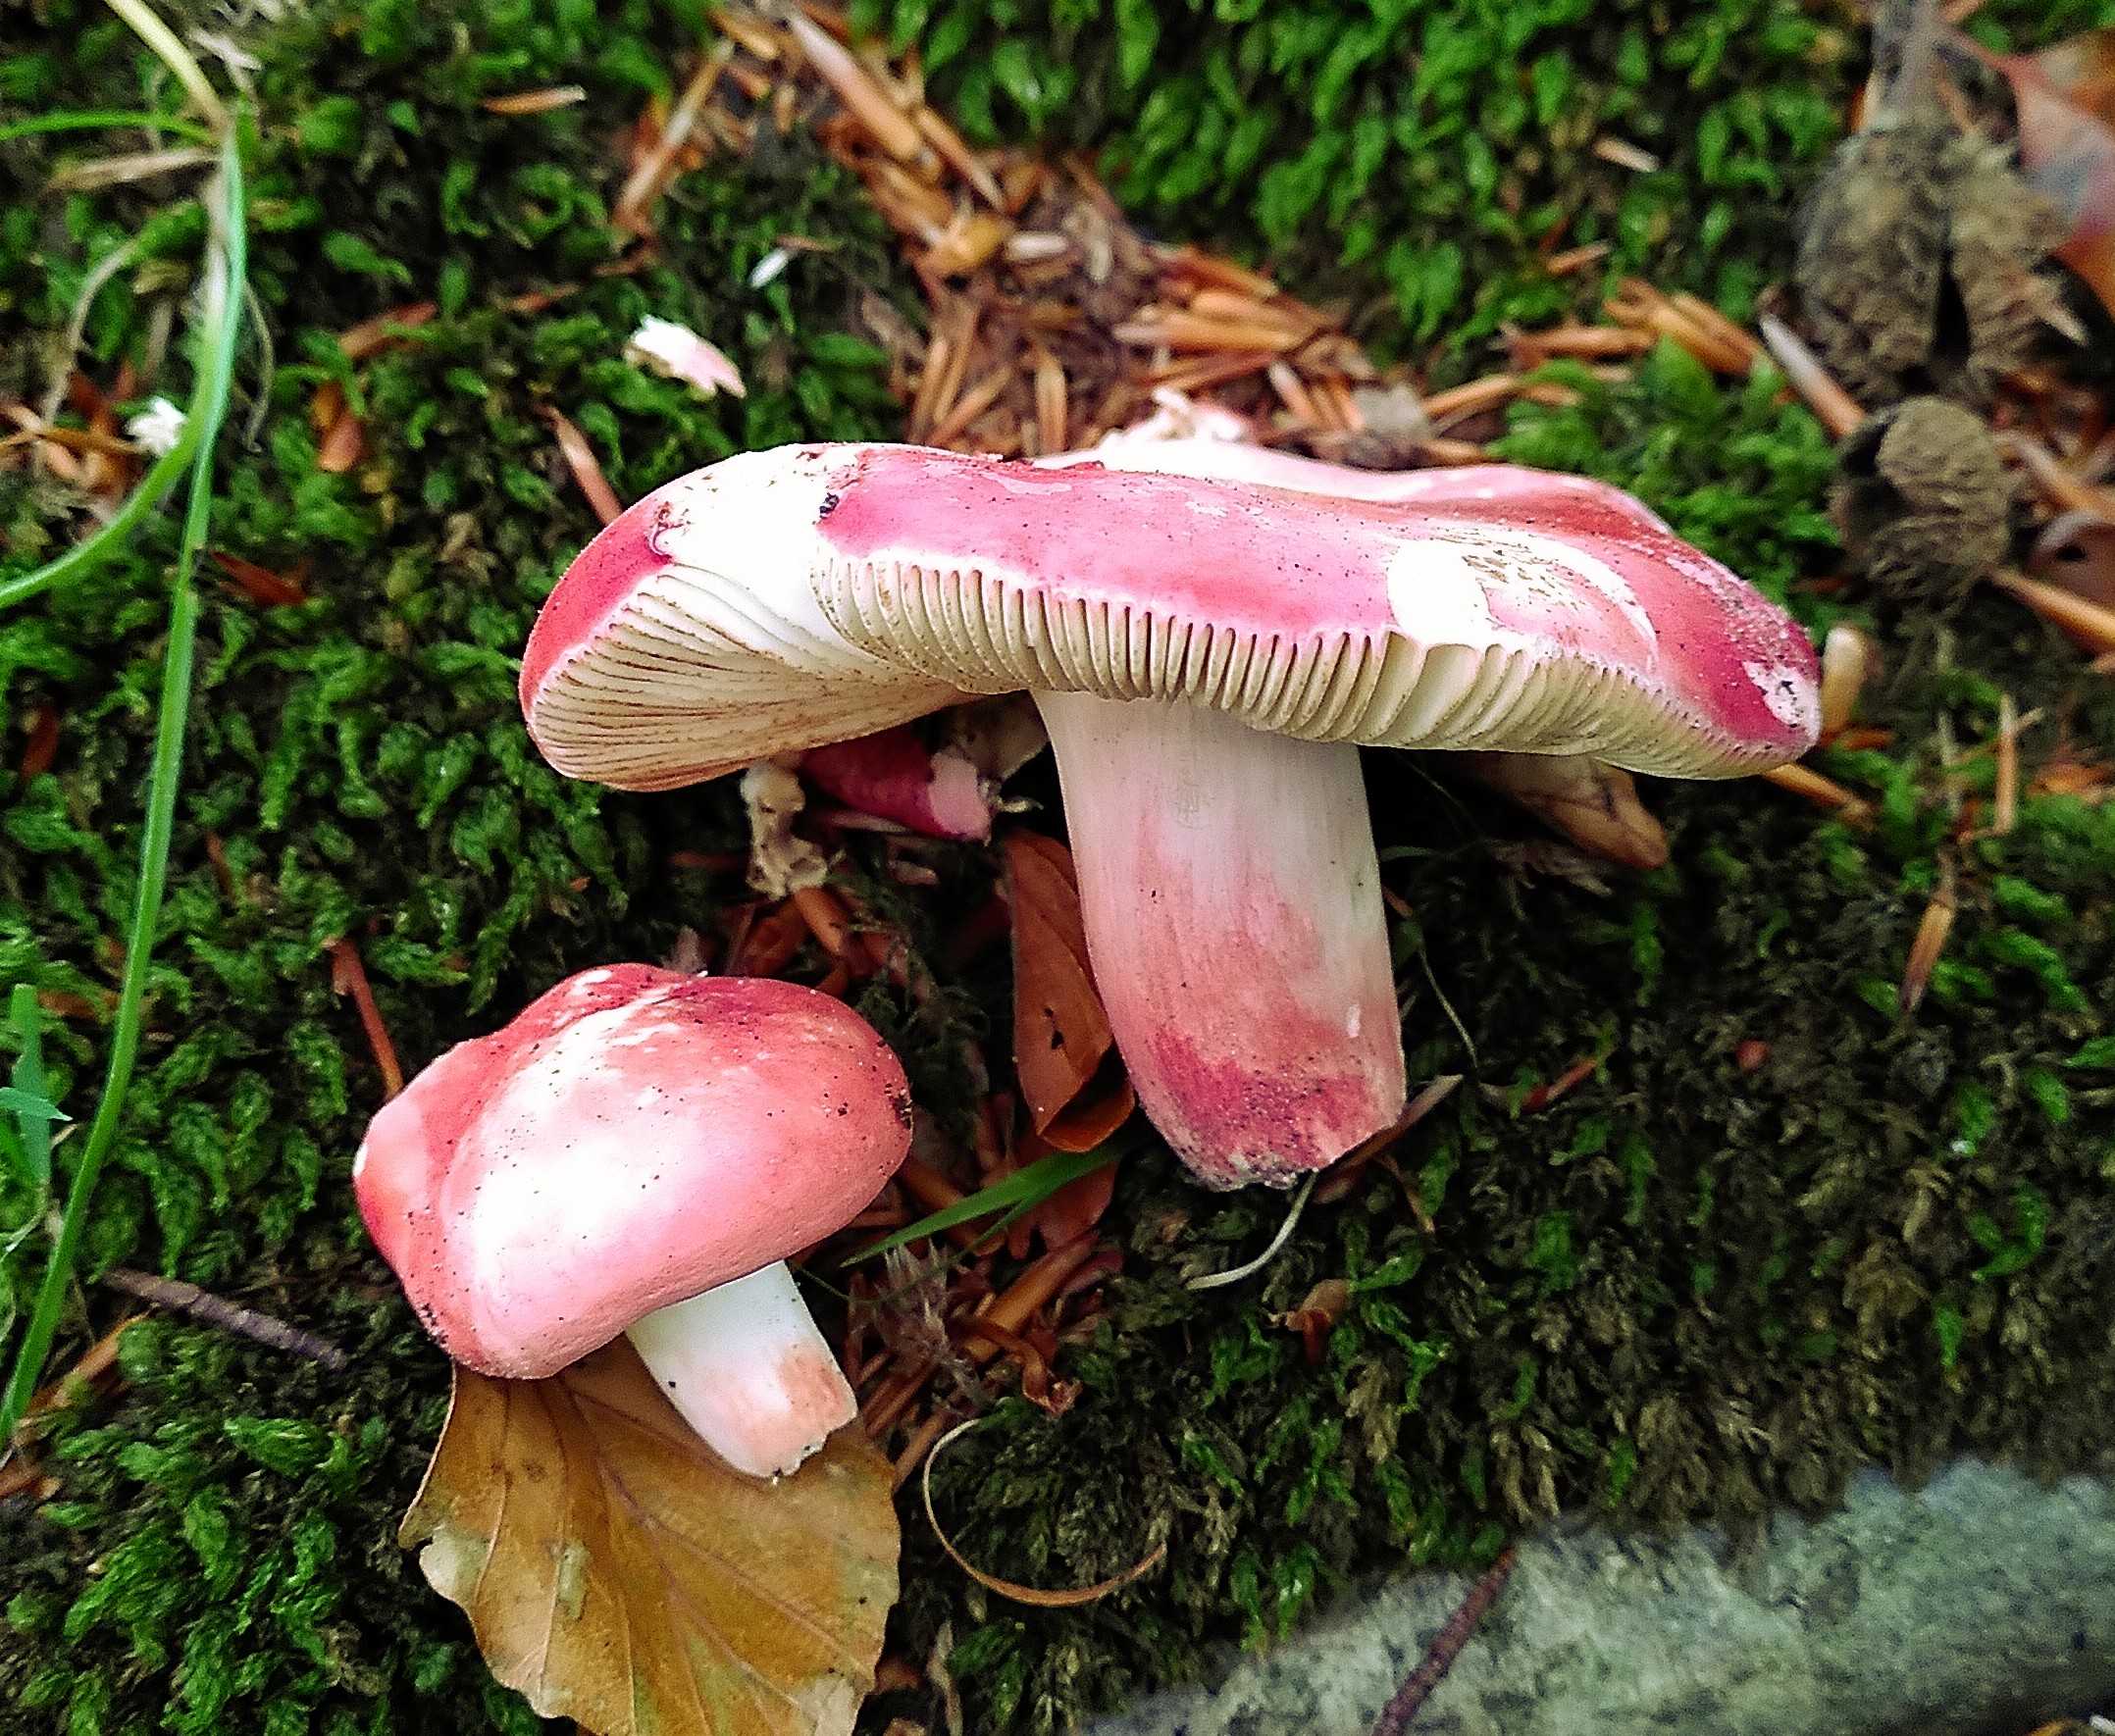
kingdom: Fungi
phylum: Basidiomycota
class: Agaricomycetes
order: Russulales
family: Russulaceae
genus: Russula
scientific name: Russula rosea
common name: fastkødet skørhat
